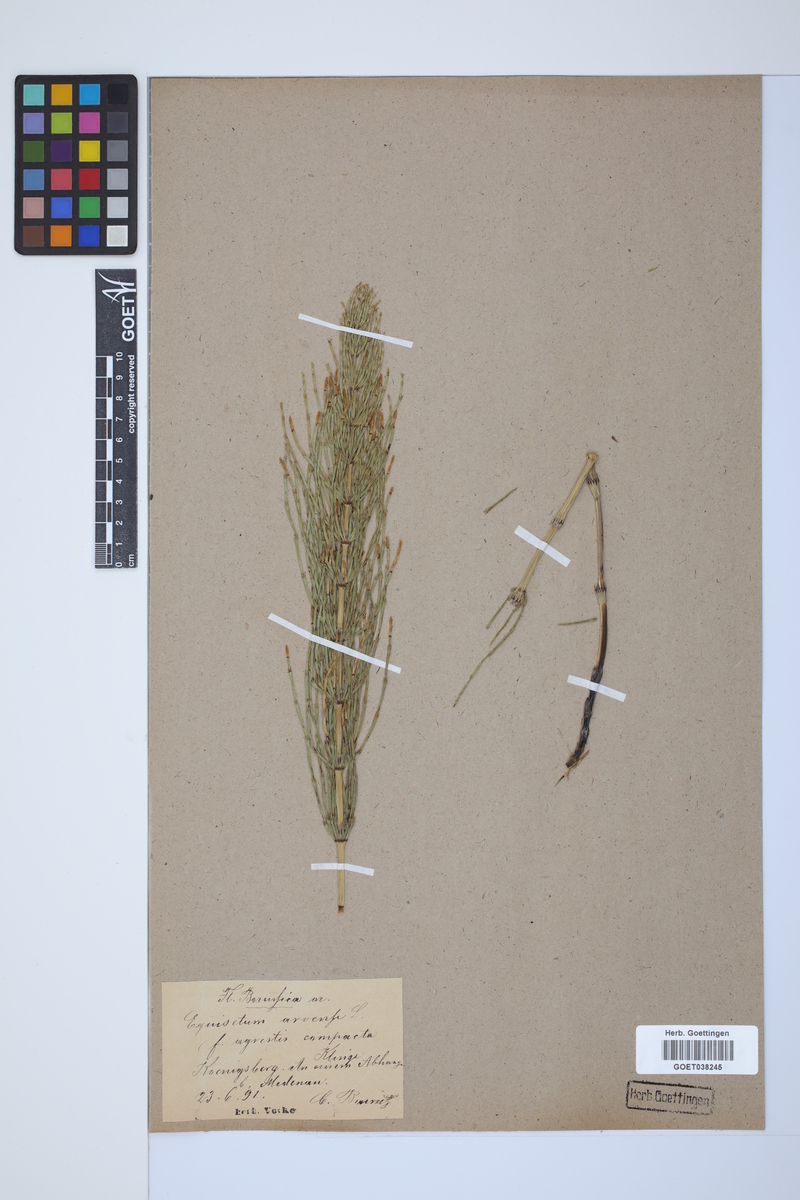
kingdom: Plantae
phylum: Tracheophyta
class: Polypodiopsida
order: Equisetales
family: Equisetaceae
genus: Equisetum
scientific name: Equisetum arvense
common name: Field horsetail
